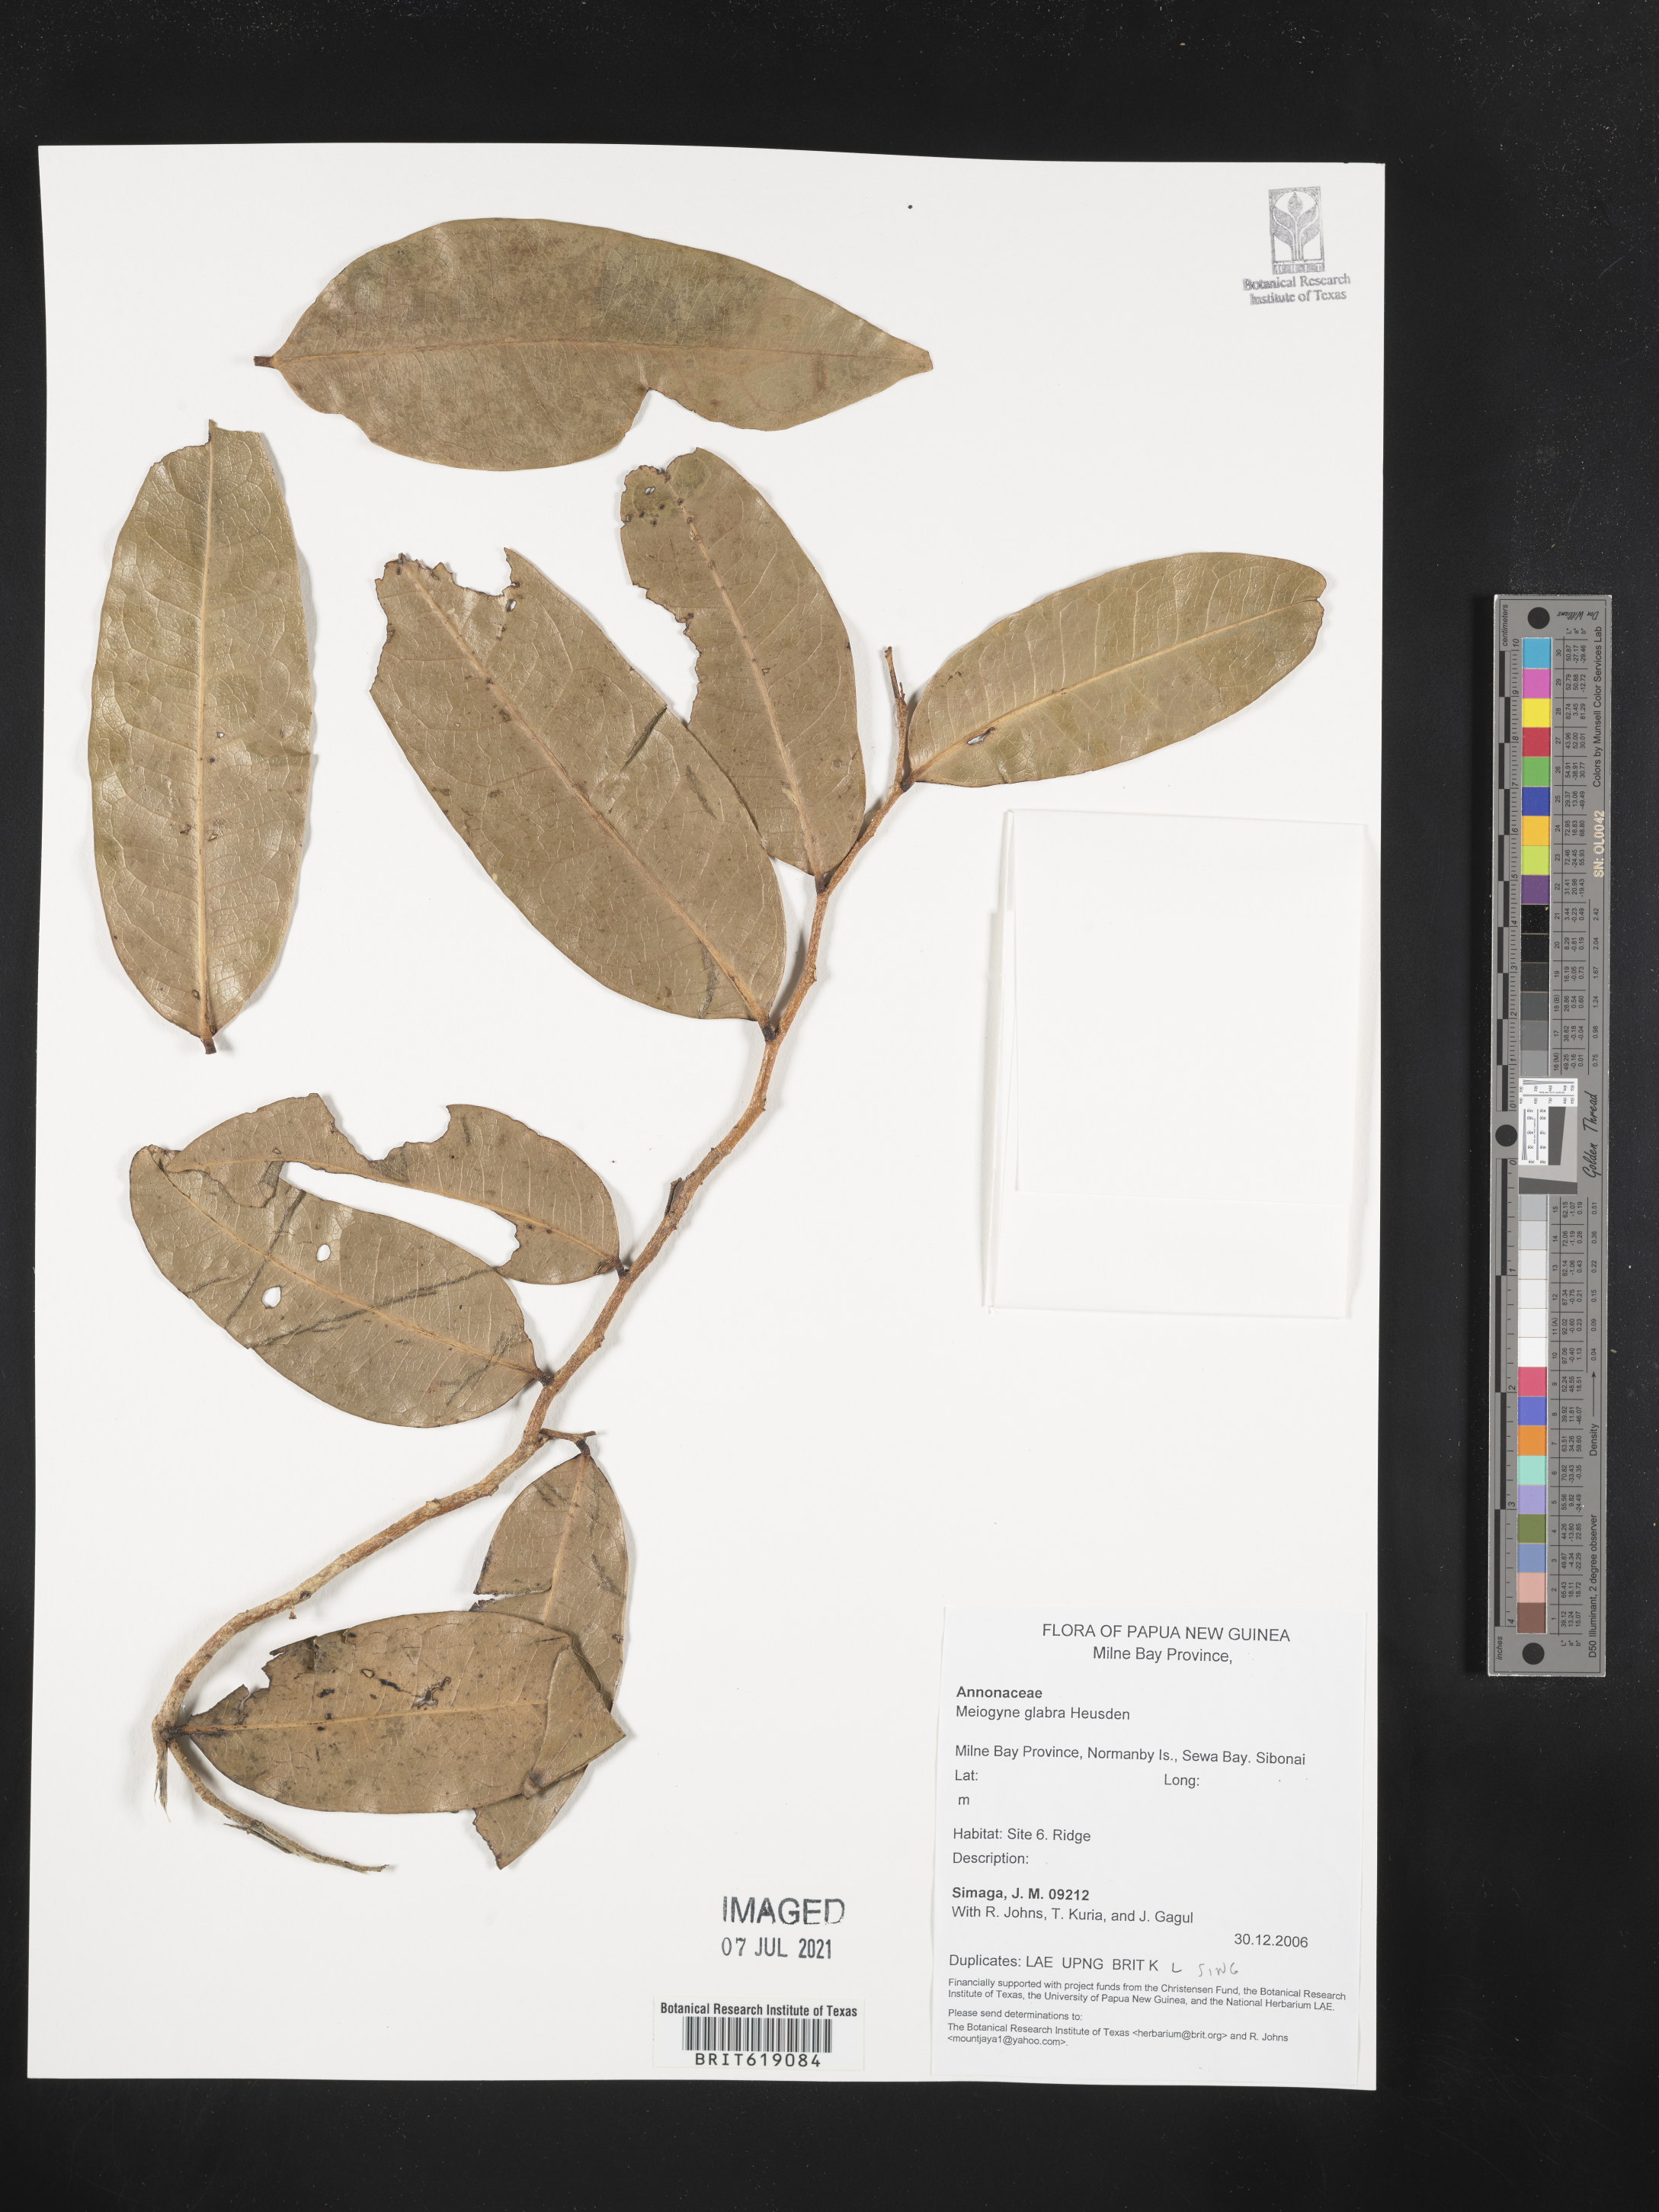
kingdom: Plantae
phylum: Tracheophyta
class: Magnoliopsida
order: Magnoliales
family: Annonaceae
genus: Meiogyne
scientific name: Meiogyne glabra
